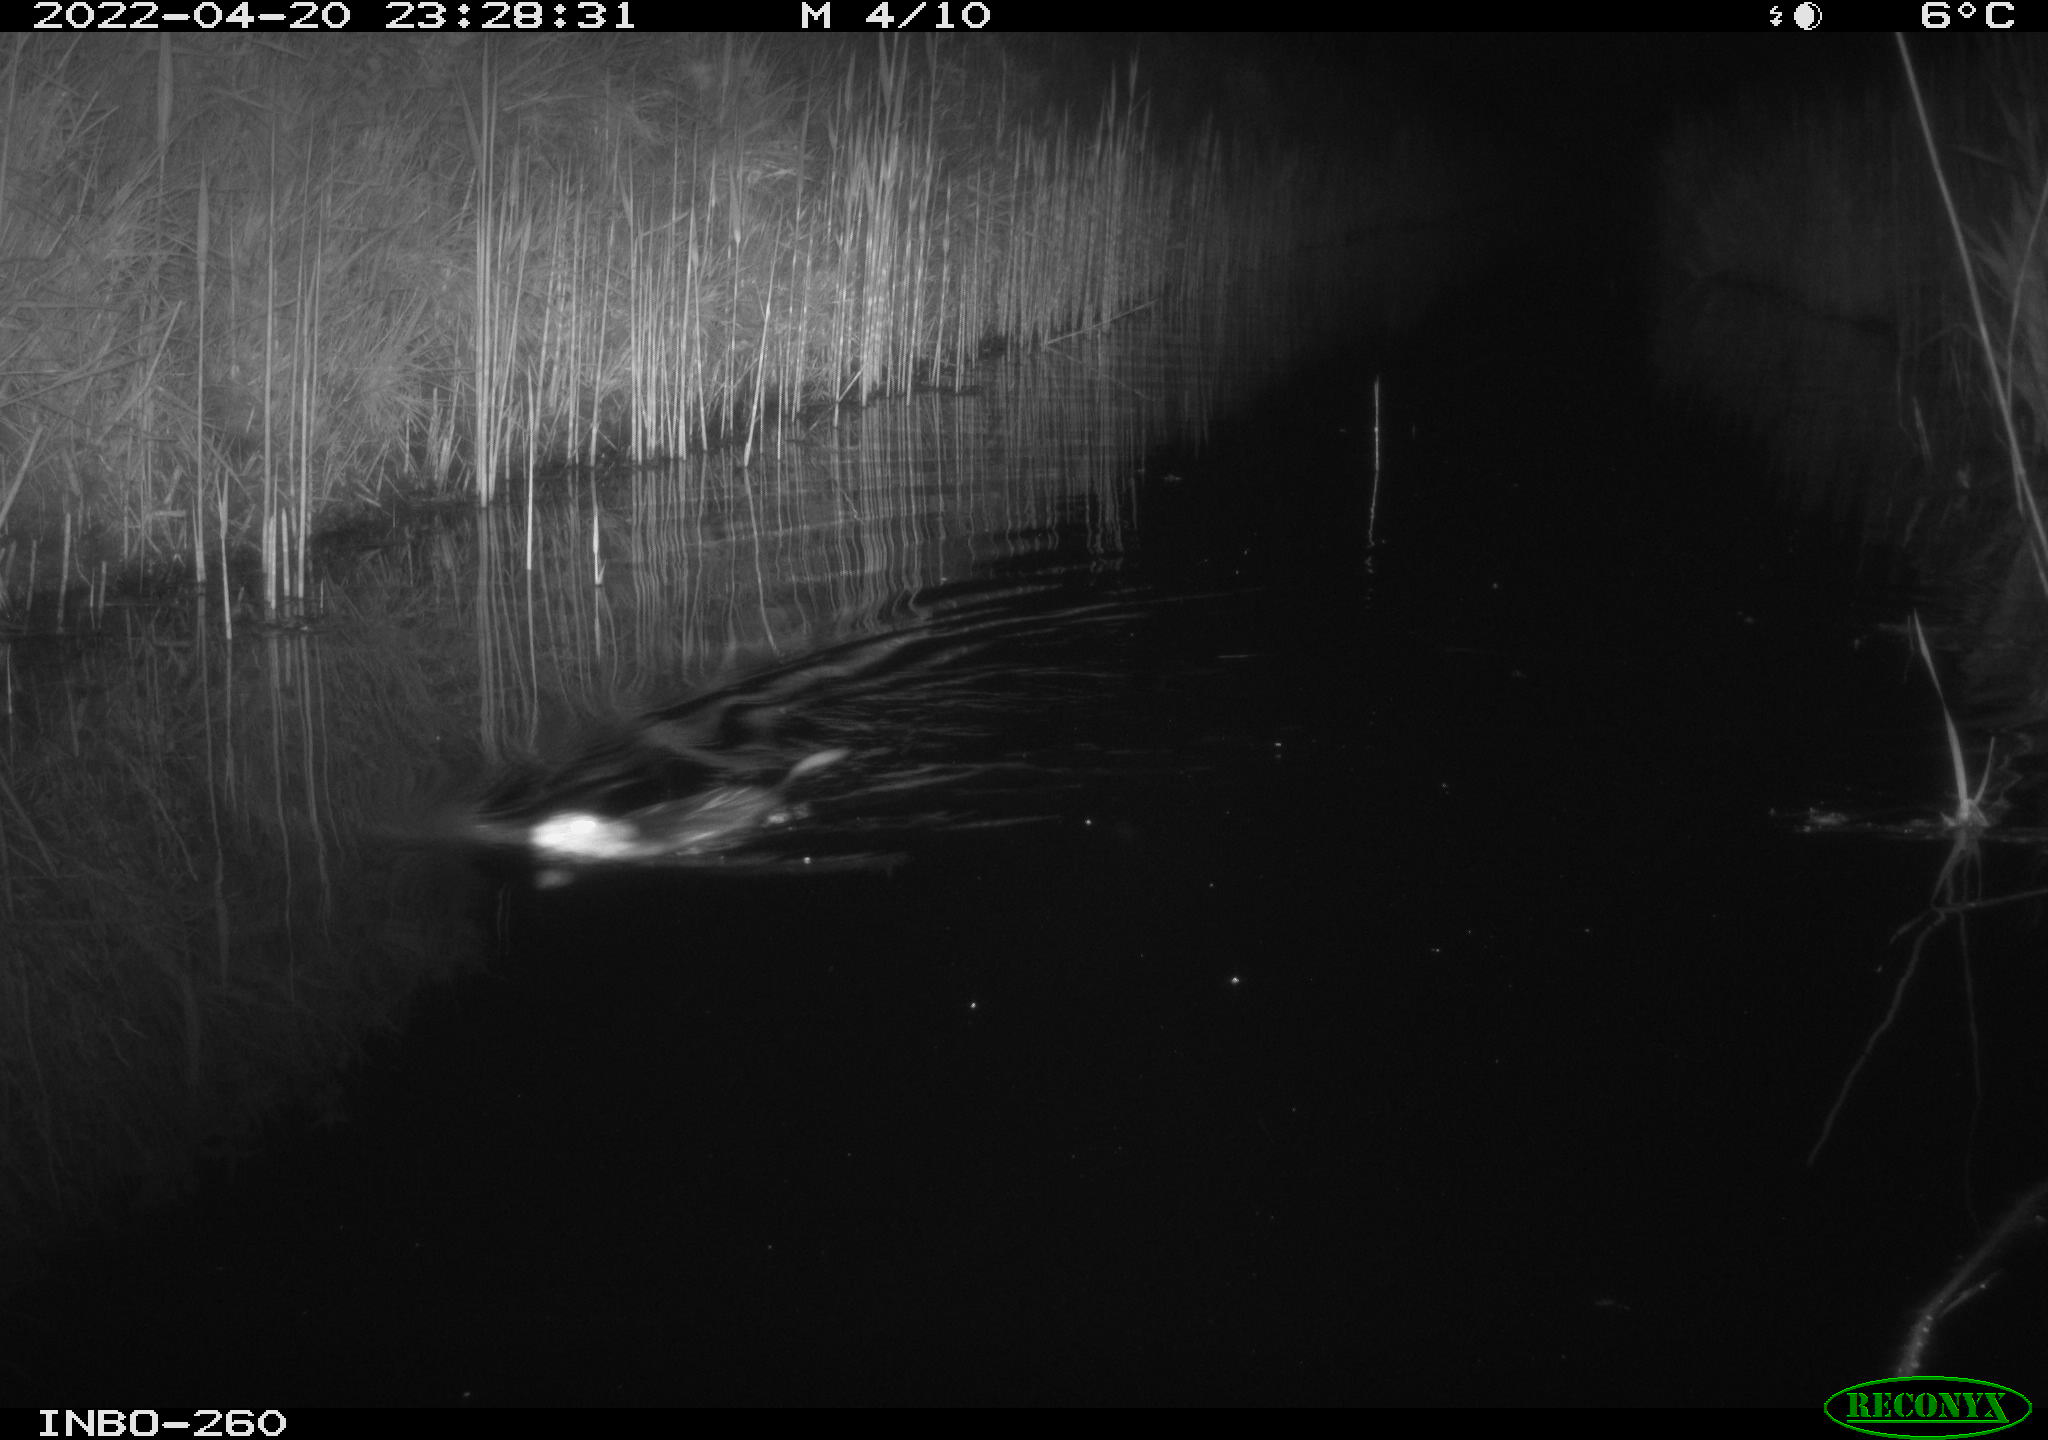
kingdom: Animalia
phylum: Chordata
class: Mammalia
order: Rodentia
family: Cricetidae
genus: Ondatra
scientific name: Ondatra zibethicus
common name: Muskrat
